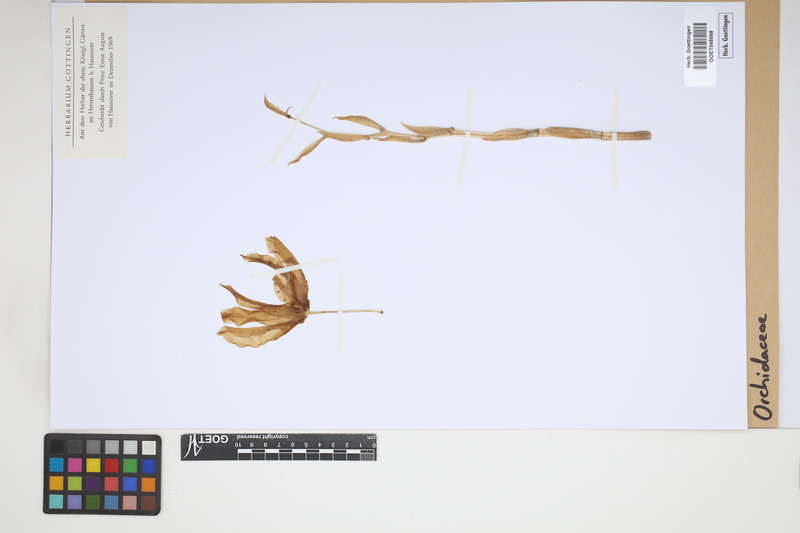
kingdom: Plantae
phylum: Tracheophyta
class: Liliopsida
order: Asparagales
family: Orchidaceae
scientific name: Orchidaceae
